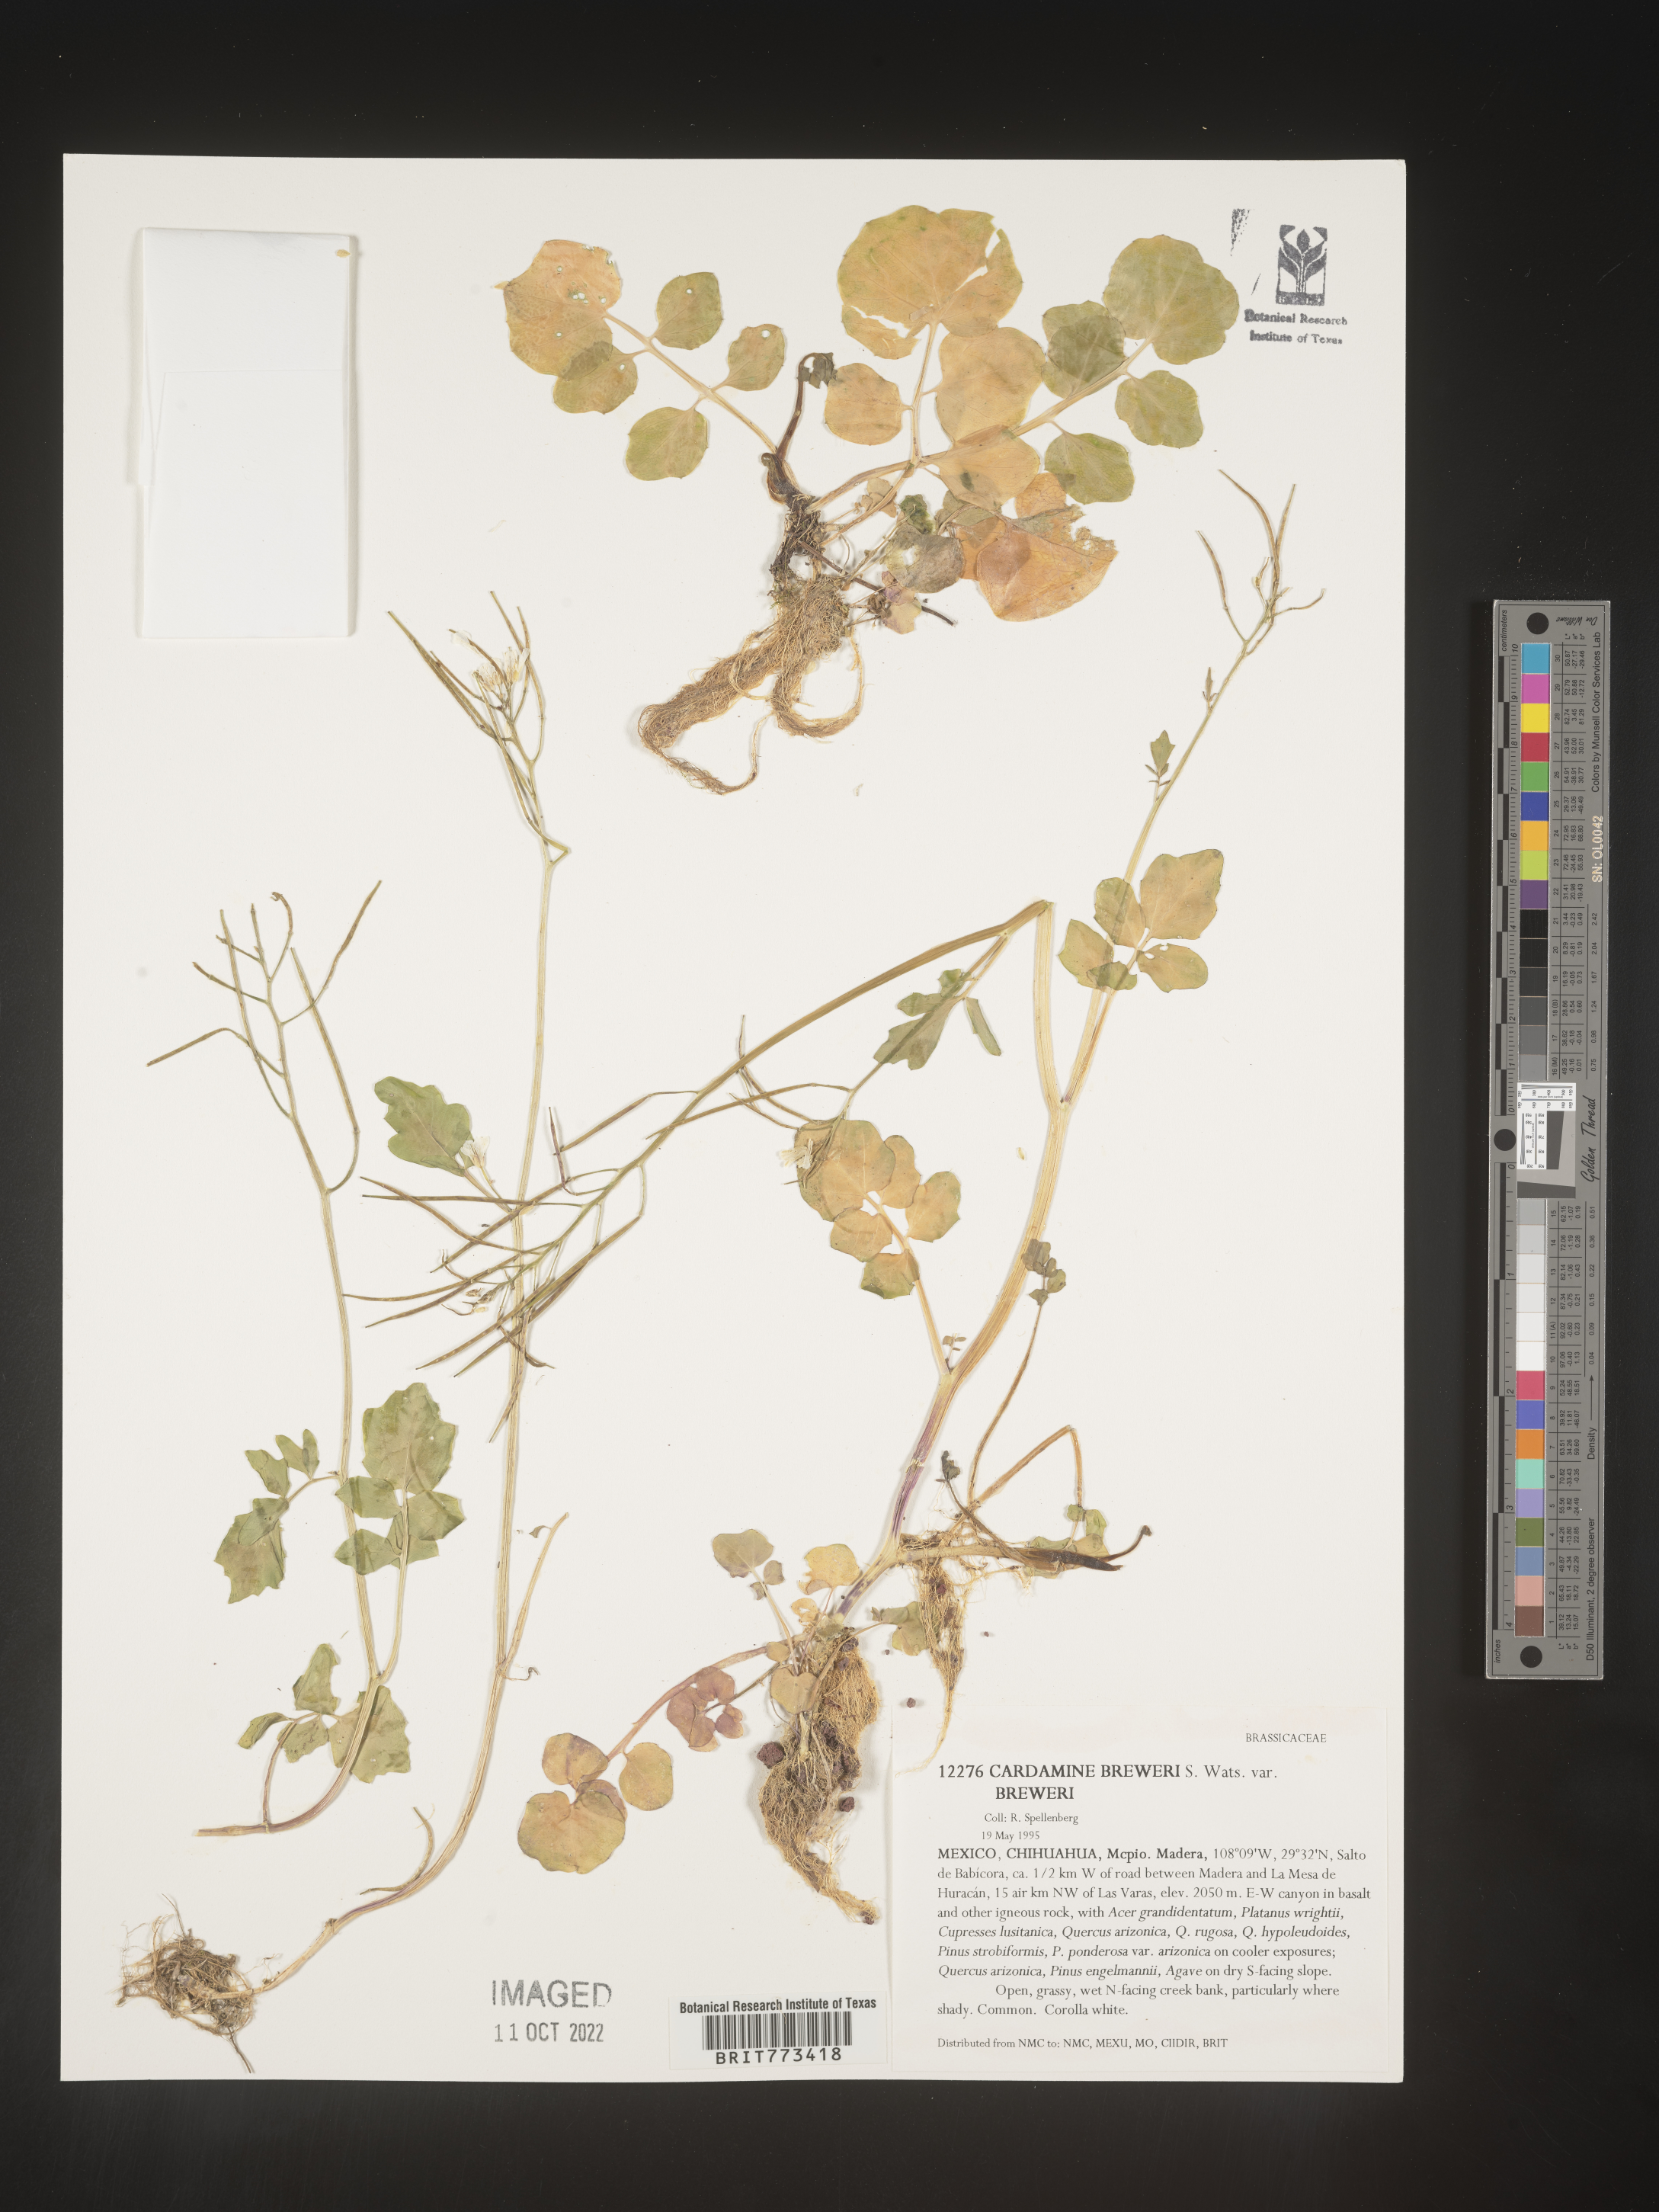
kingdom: Plantae
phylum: Tracheophyta
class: Magnoliopsida
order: Brassicales
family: Brassicaceae
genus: Cardamine
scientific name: Cardamine
